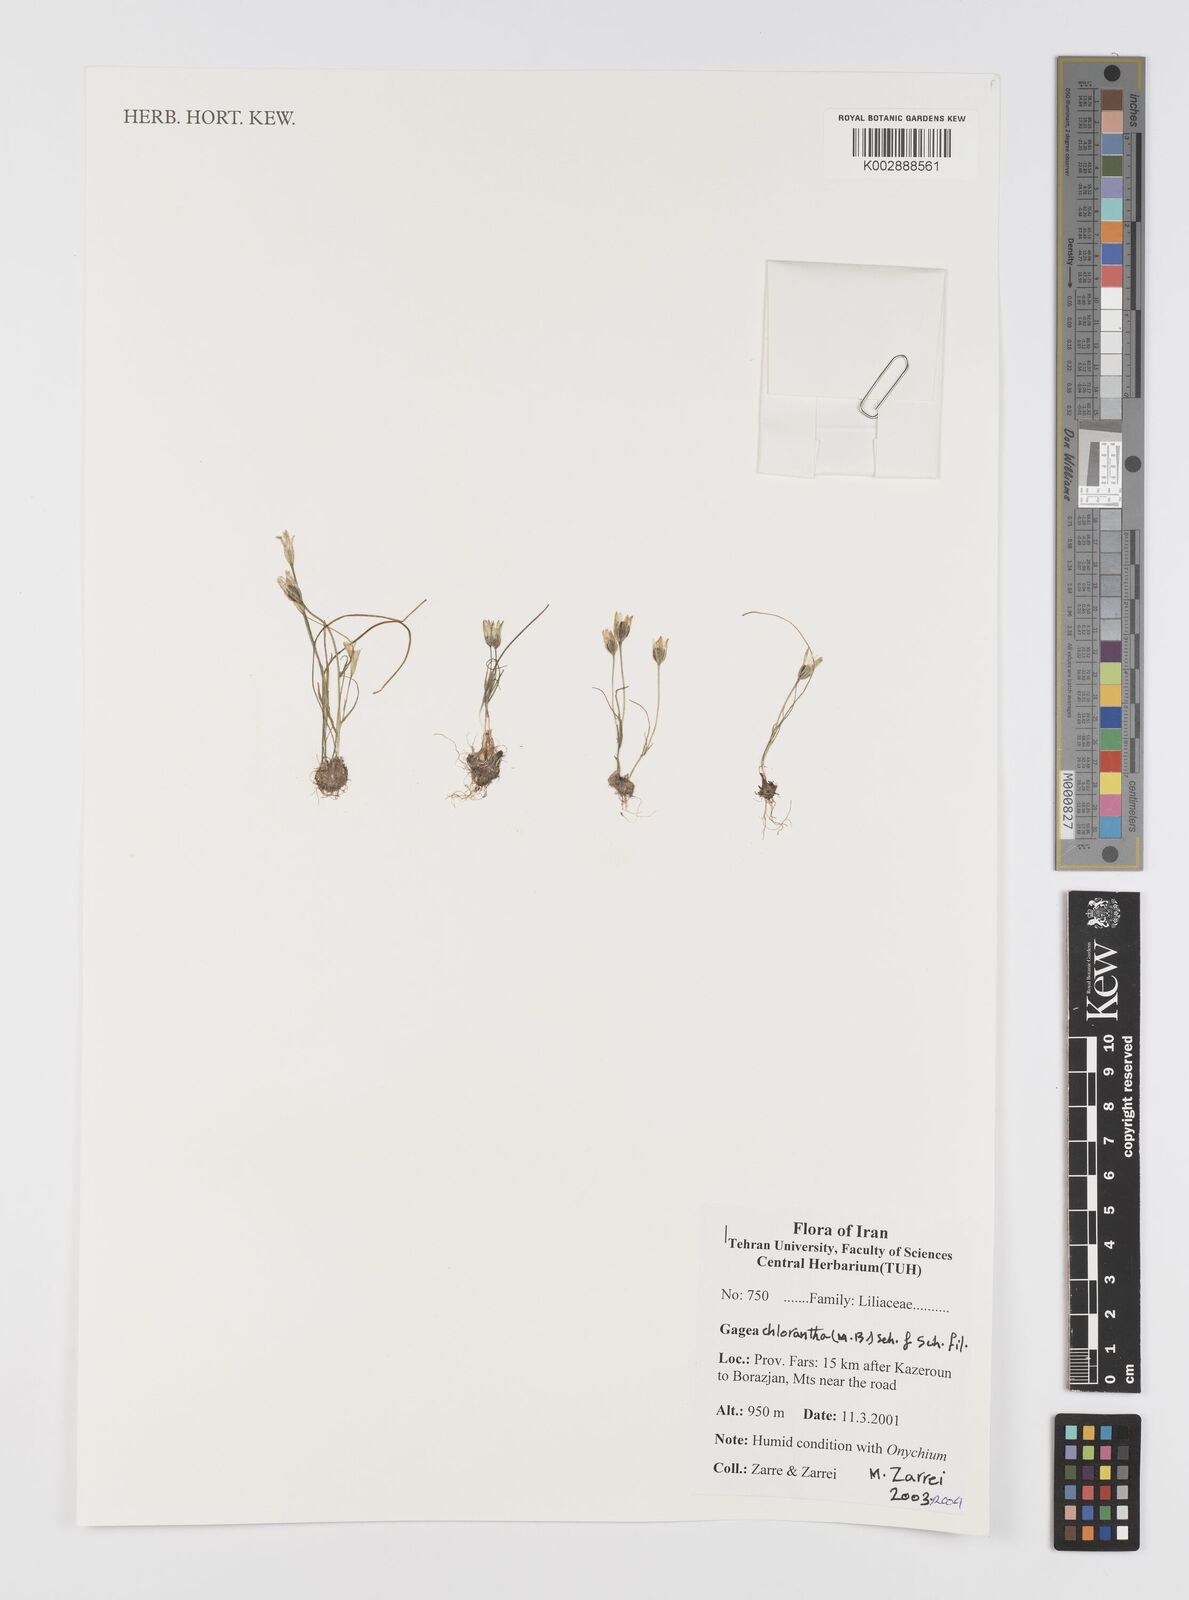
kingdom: Plantae
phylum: Tracheophyta
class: Liliopsida
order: Liliales
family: Liliaceae
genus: Gagea
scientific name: Gagea chlorantha
